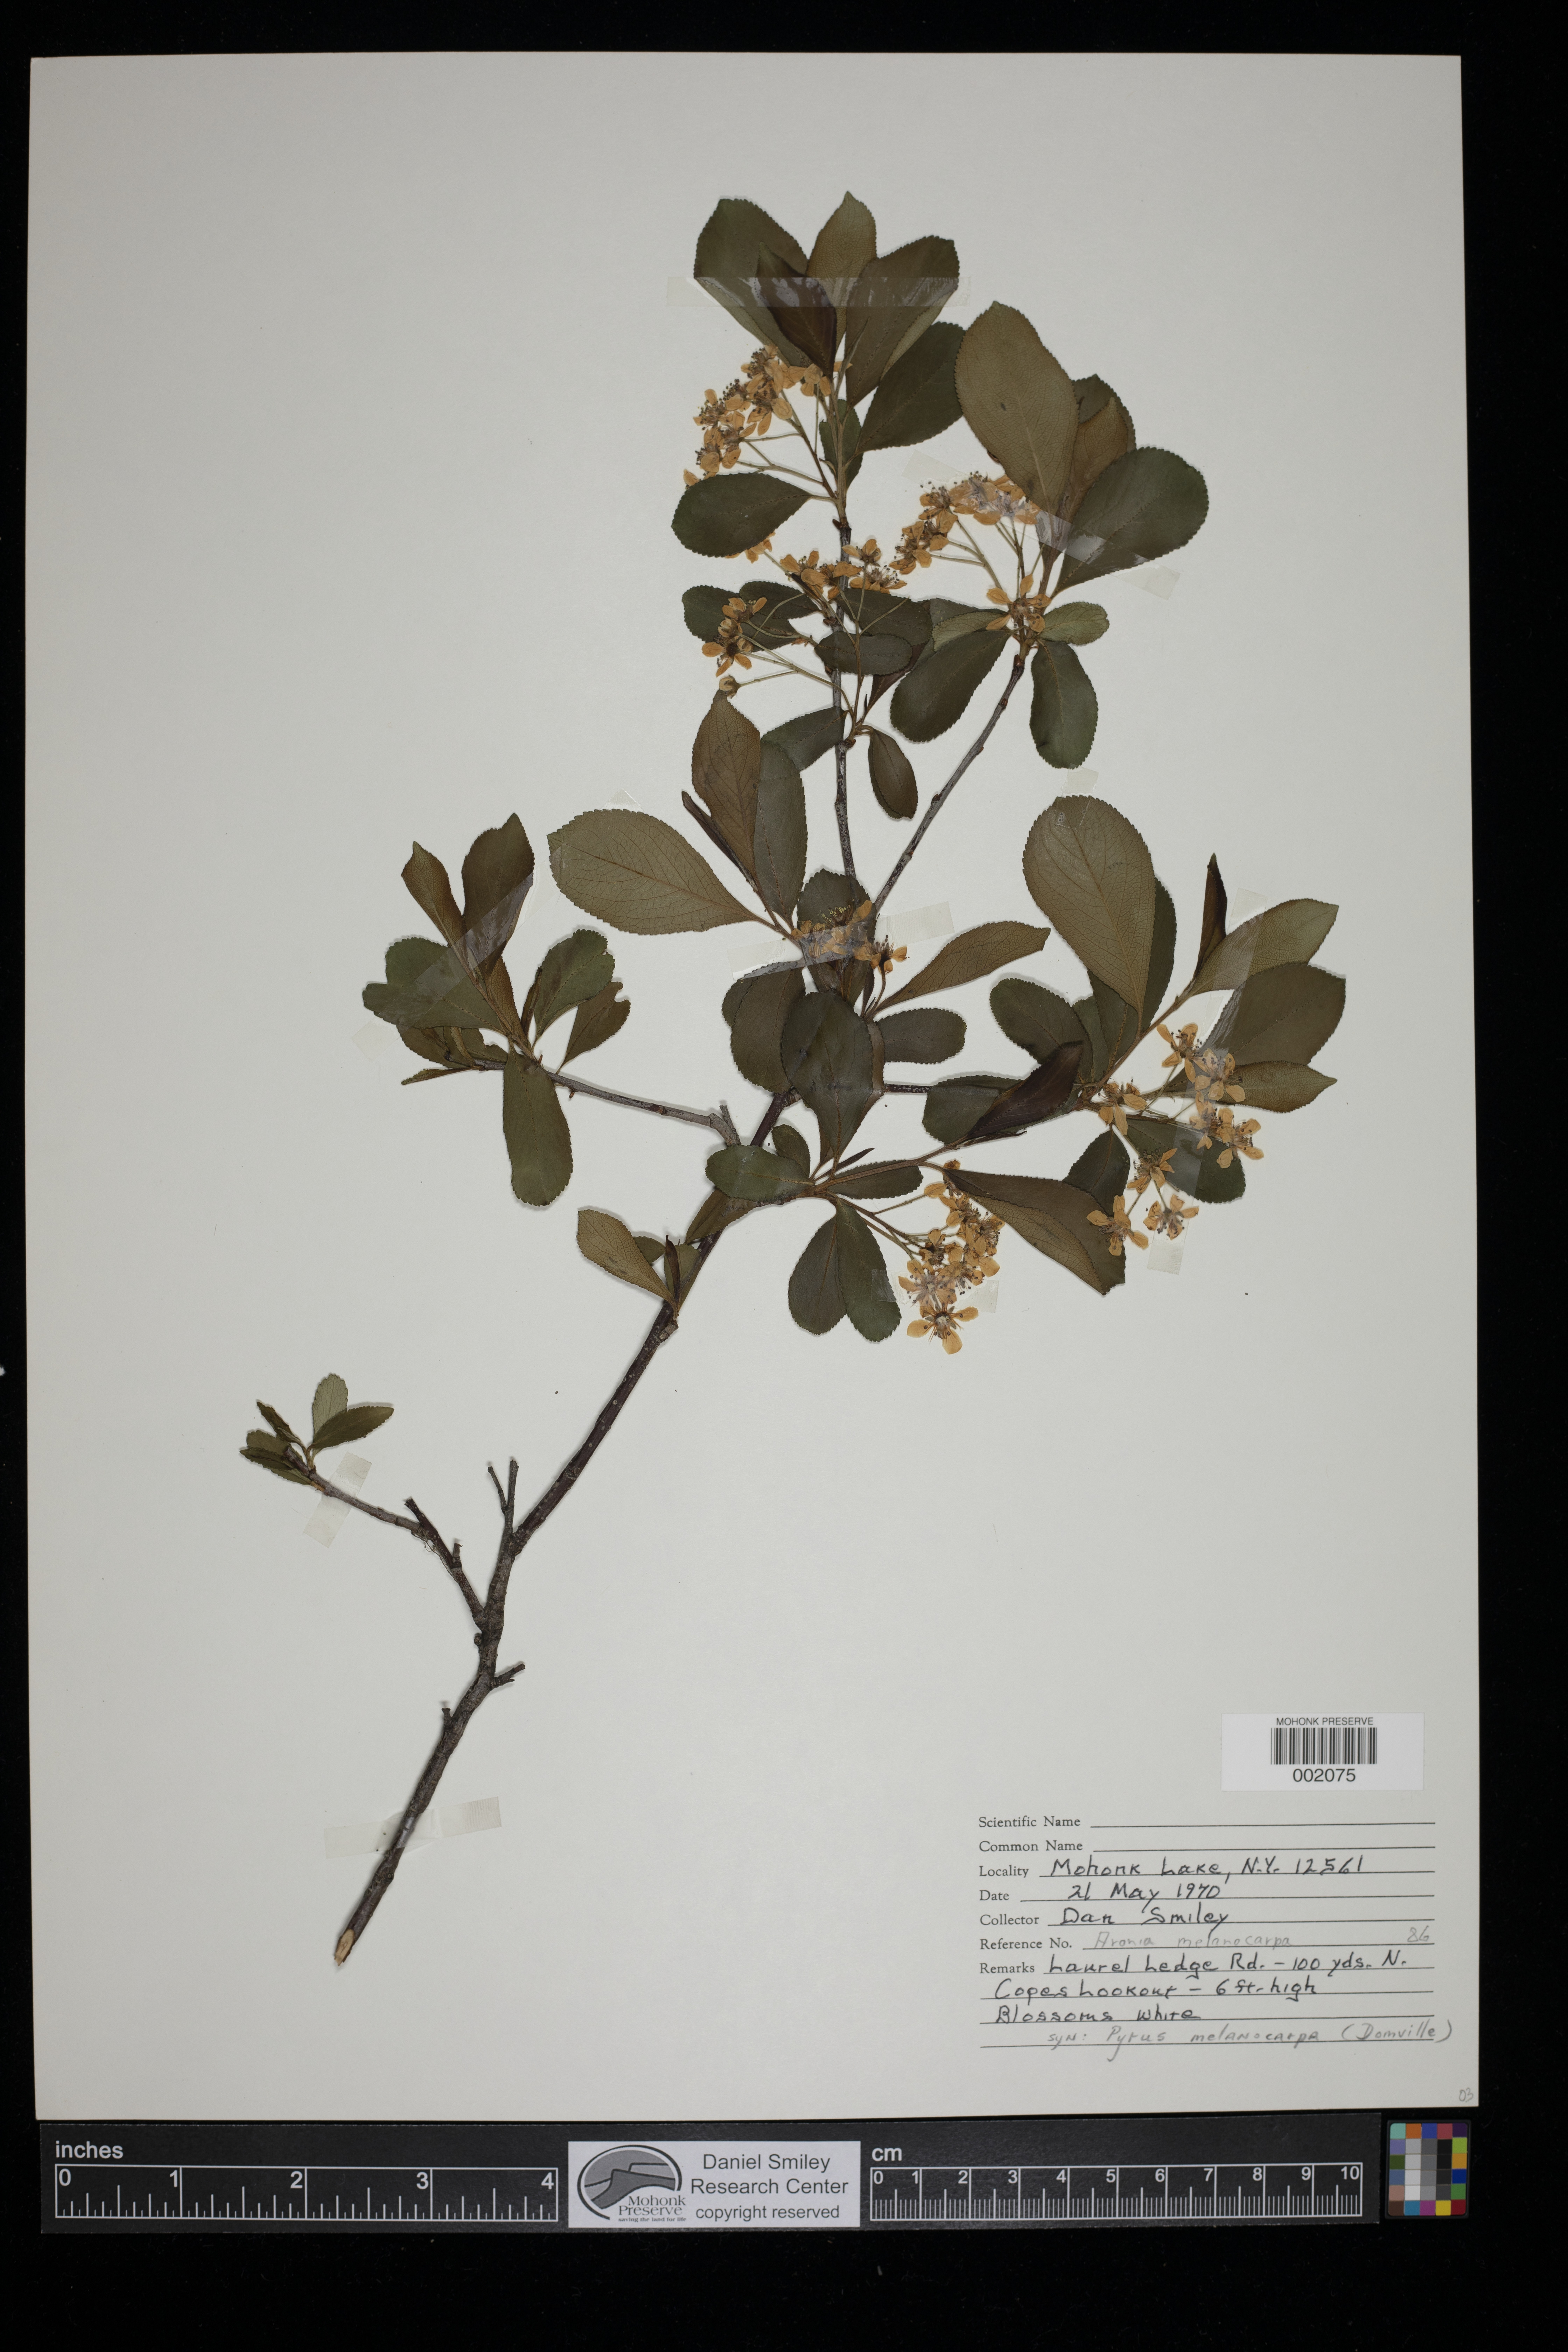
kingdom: Plantae
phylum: Tracheophyta
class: Magnoliopsida
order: Rosales
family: Rosaceae
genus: Aronia
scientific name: Aronia melanocarpa
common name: Black chokeberry
